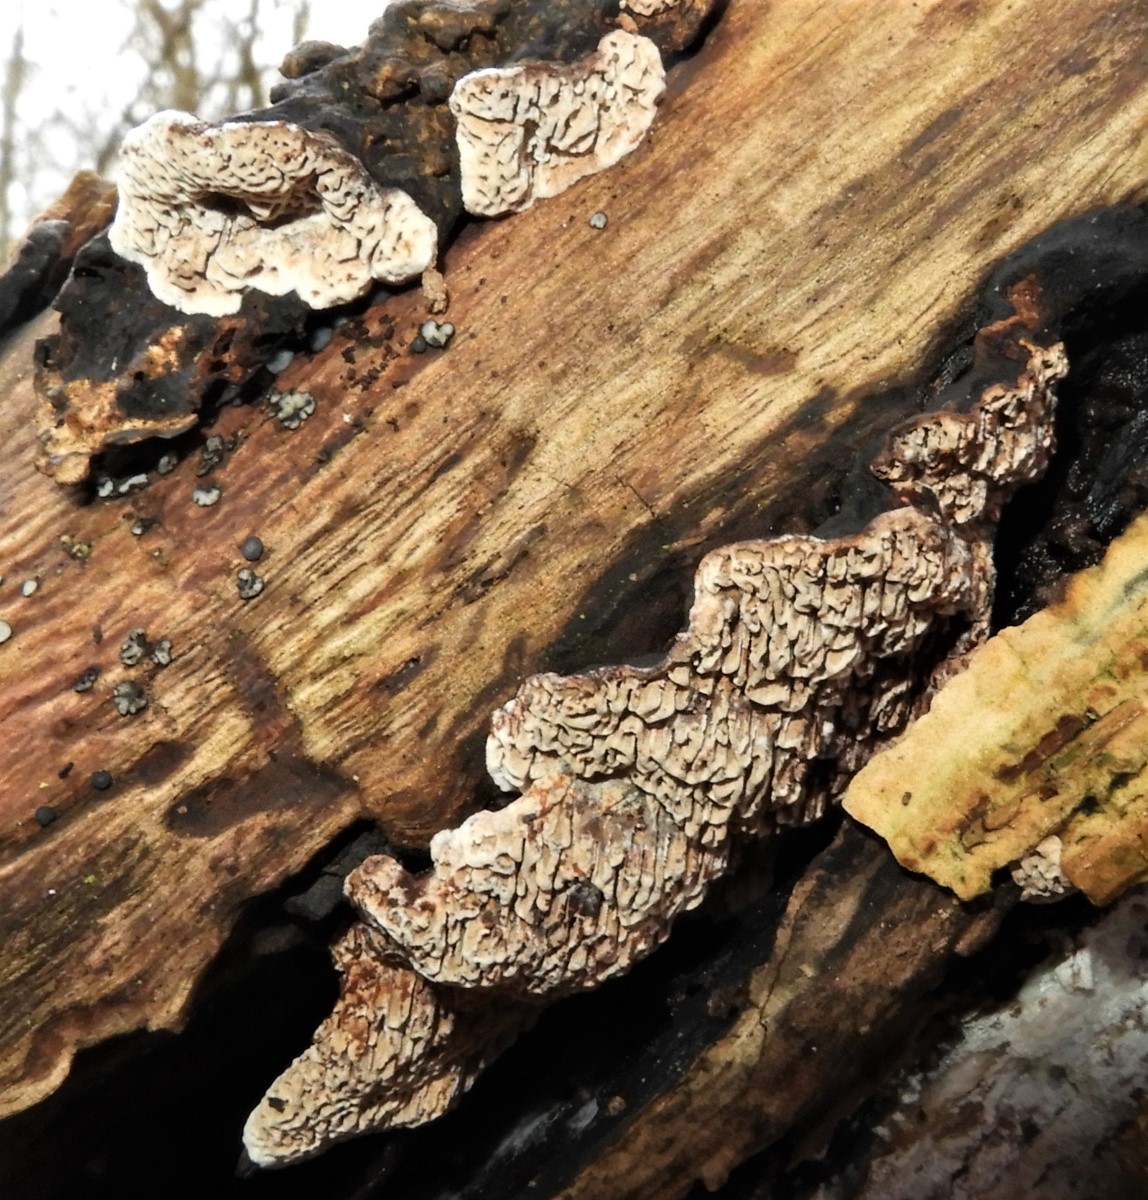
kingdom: Fungi
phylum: Basidiomycota
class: Agaricomycetes
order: Polyporales
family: Polyporaceae
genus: Podofomes
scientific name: Podofomes mollis
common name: blød begporesvamp
